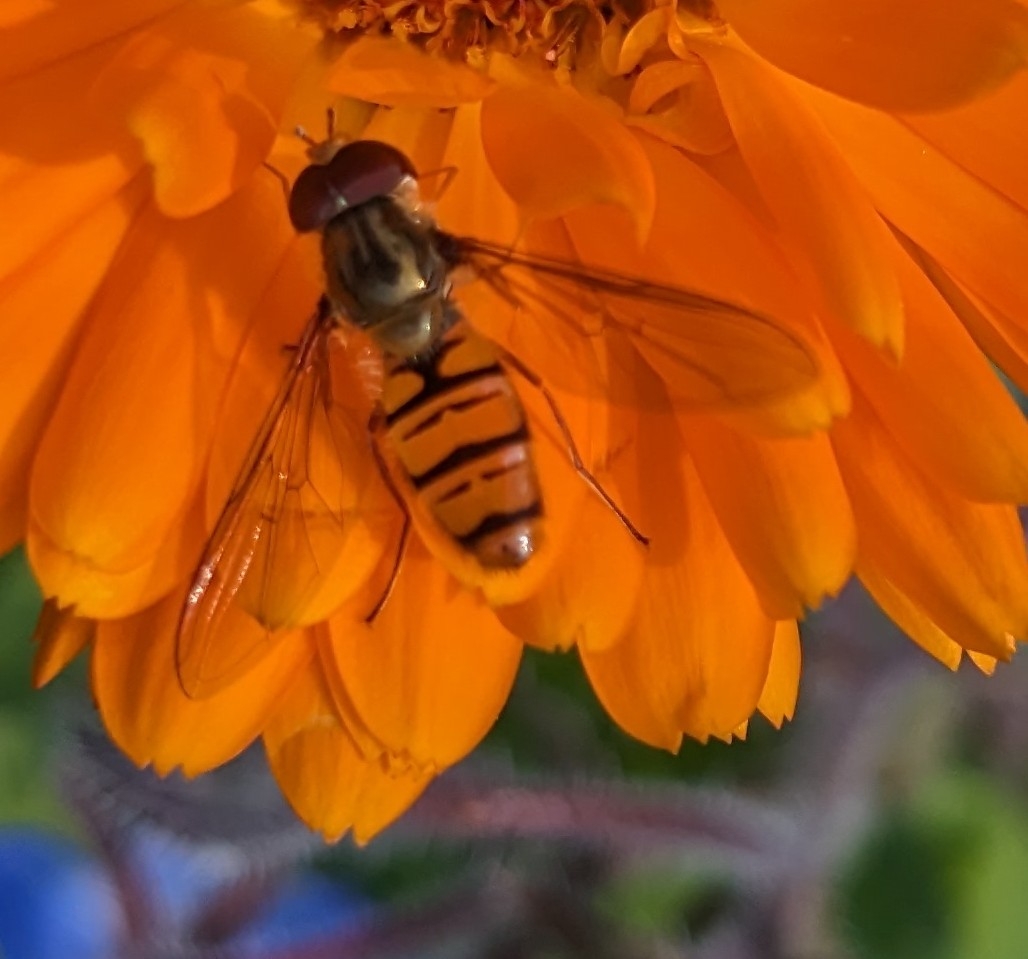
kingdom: Animalia
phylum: Arthropoda
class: Insecta
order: Diptera
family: Syrphidae
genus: Episyrphus
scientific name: Episyrphus balteatus
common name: Dobbeltbåndet svirreflue
